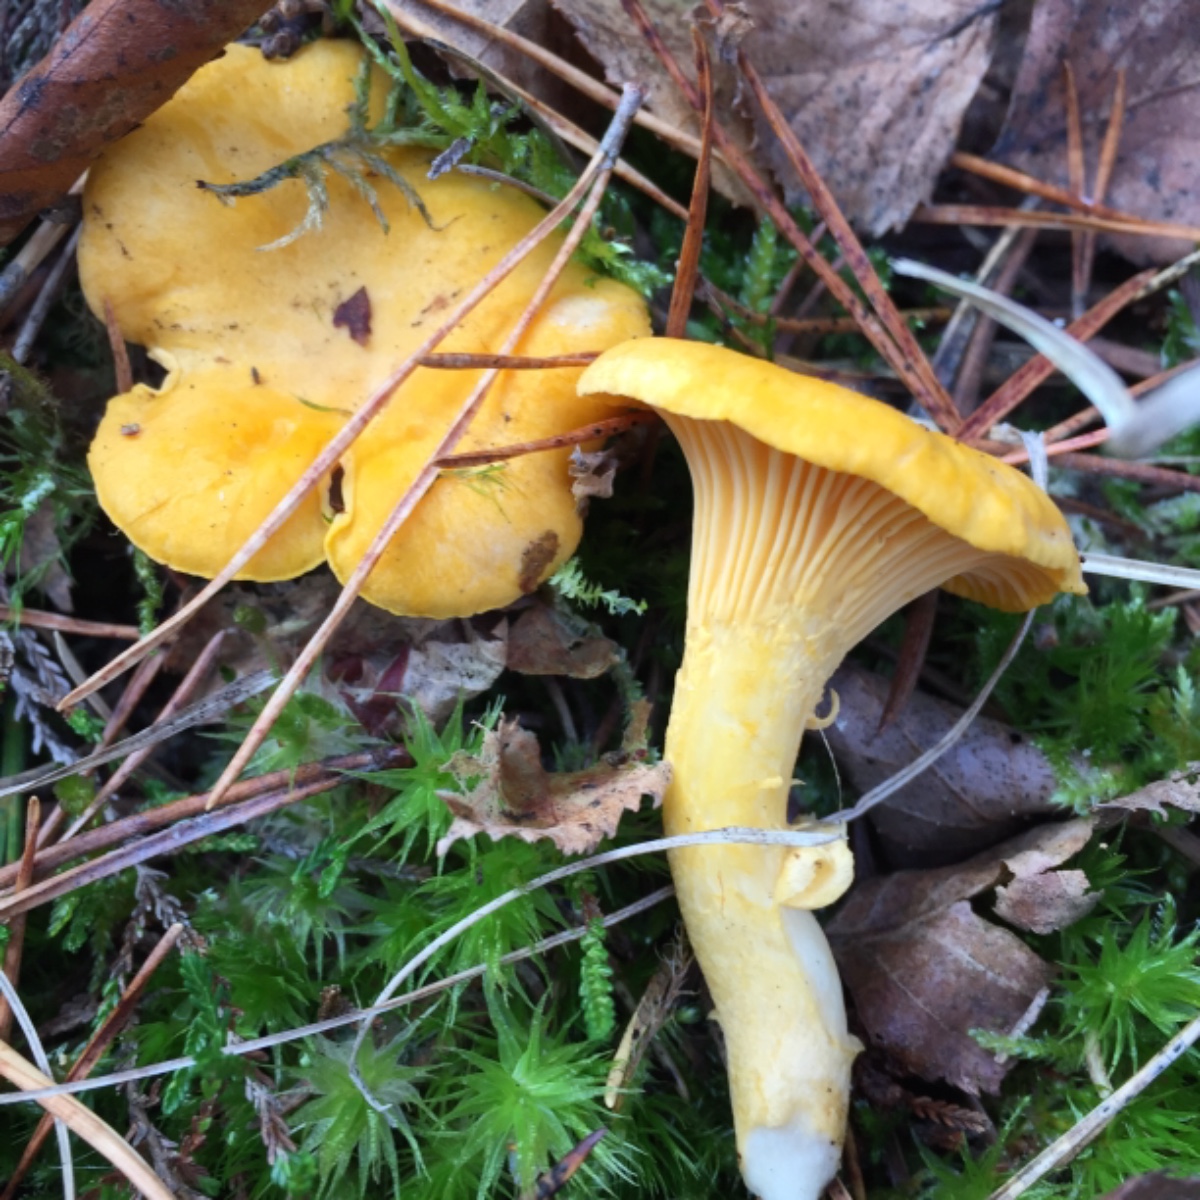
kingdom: Fungi
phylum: Basidiomycota
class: Agaricomycetes
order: Cantharellales
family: Hydnaceae
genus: Cantharellus
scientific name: Cantharellus cibarius
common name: almindelig kantarel
